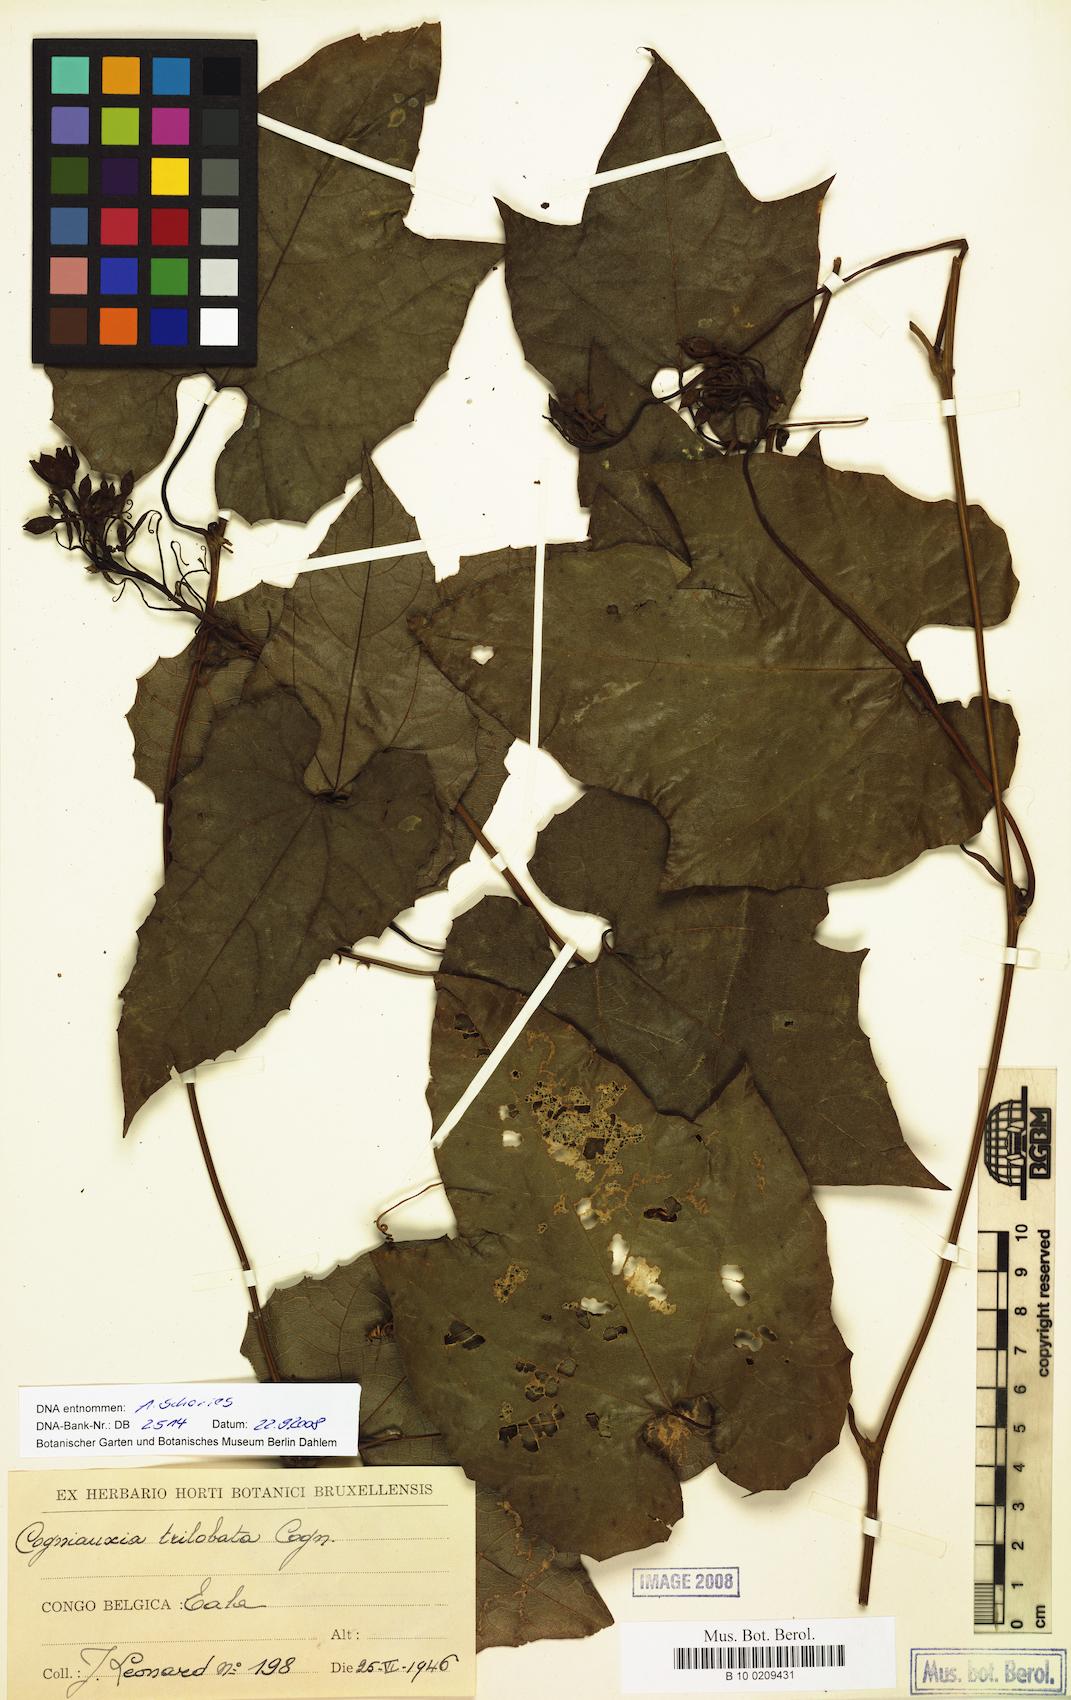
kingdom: Plantae
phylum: Tracheophyta
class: Magnoliopsida
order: Cucurbitales
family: Cucurbitaceae
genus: Cogniauxia
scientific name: Cogniauxia trilobata
